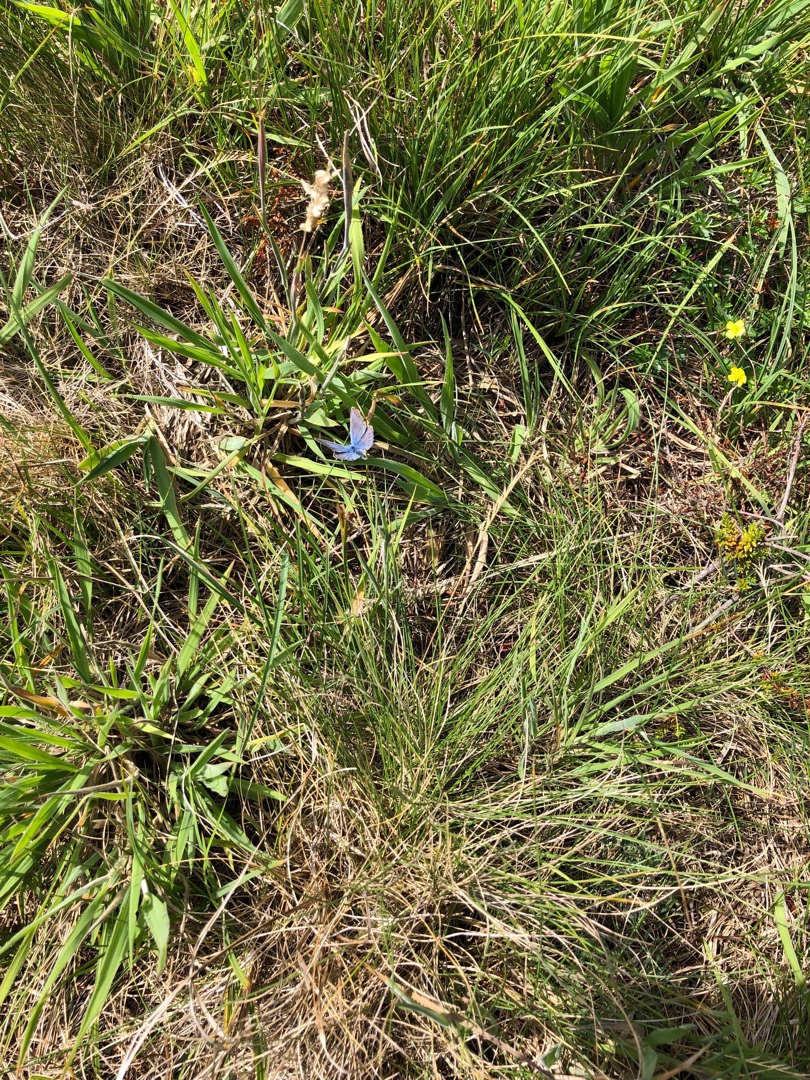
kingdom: Animalia
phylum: Arthropoda
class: Insecta
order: Lepidoptera
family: Lycaenidae
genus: Polyommatus
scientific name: Polyommatus icarus
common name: Almindelig blåfugl
